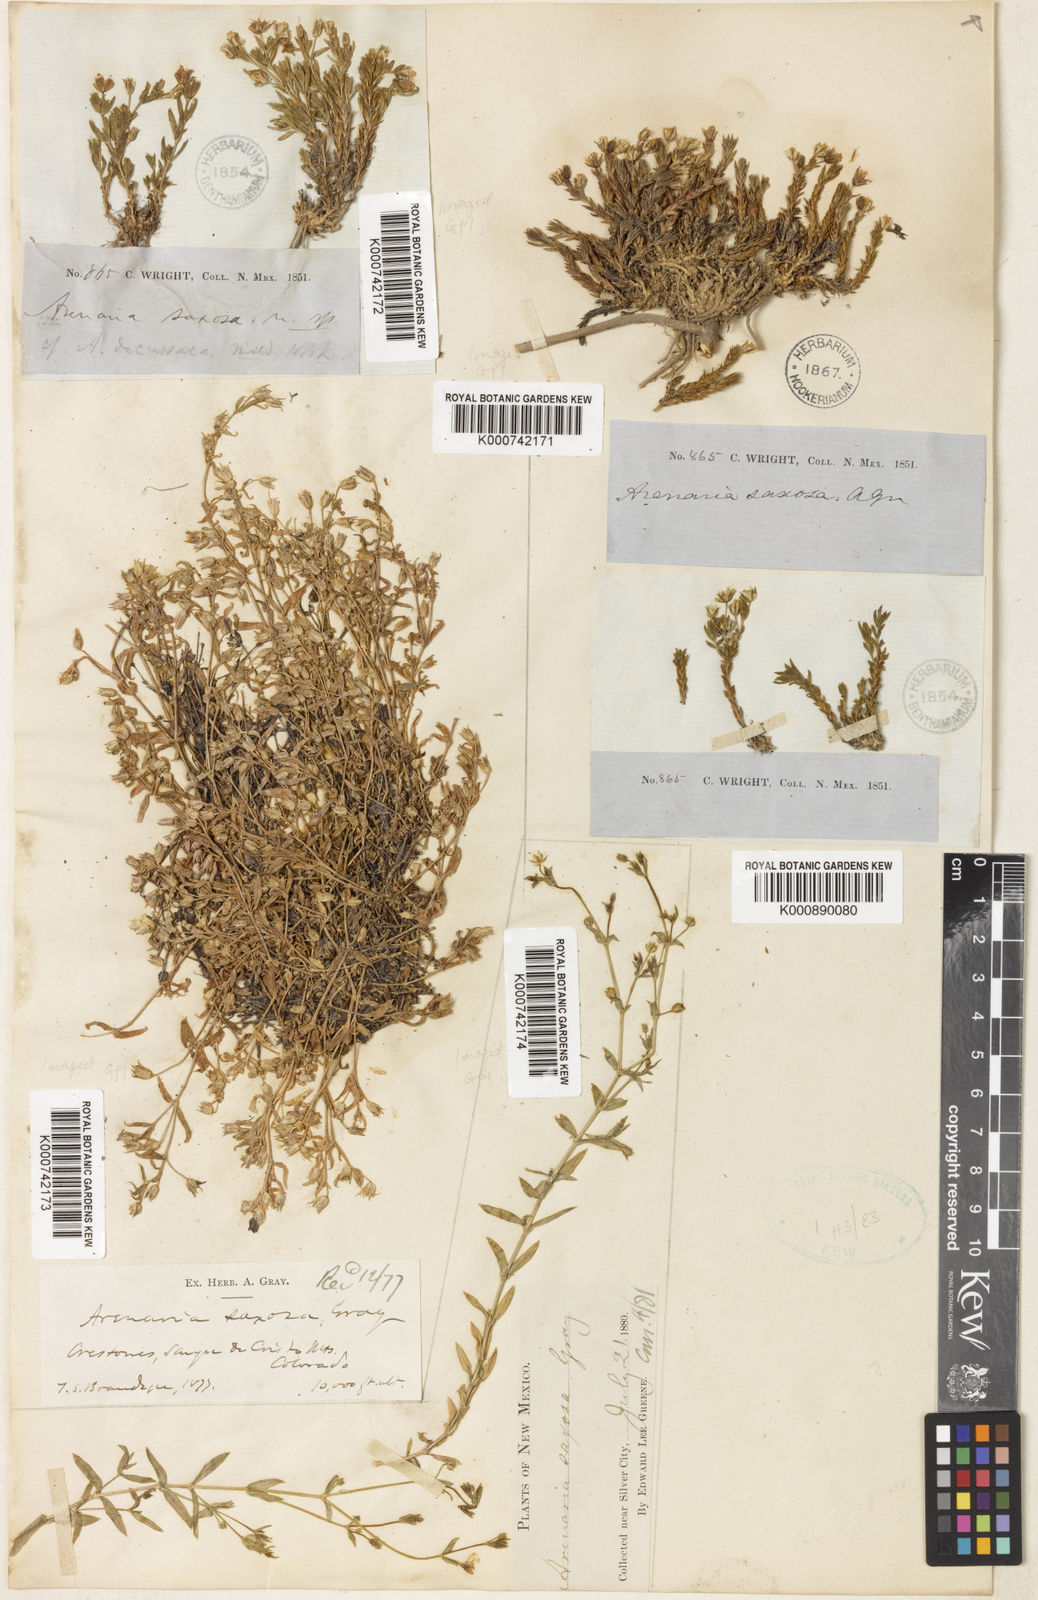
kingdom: Plantae
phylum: Tracheophyta
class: Magnoliopsida
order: Caryophyllales
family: Caryophyllaceae
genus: Arenaria
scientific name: Arenaria lanuginosa
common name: Spread sandwort
